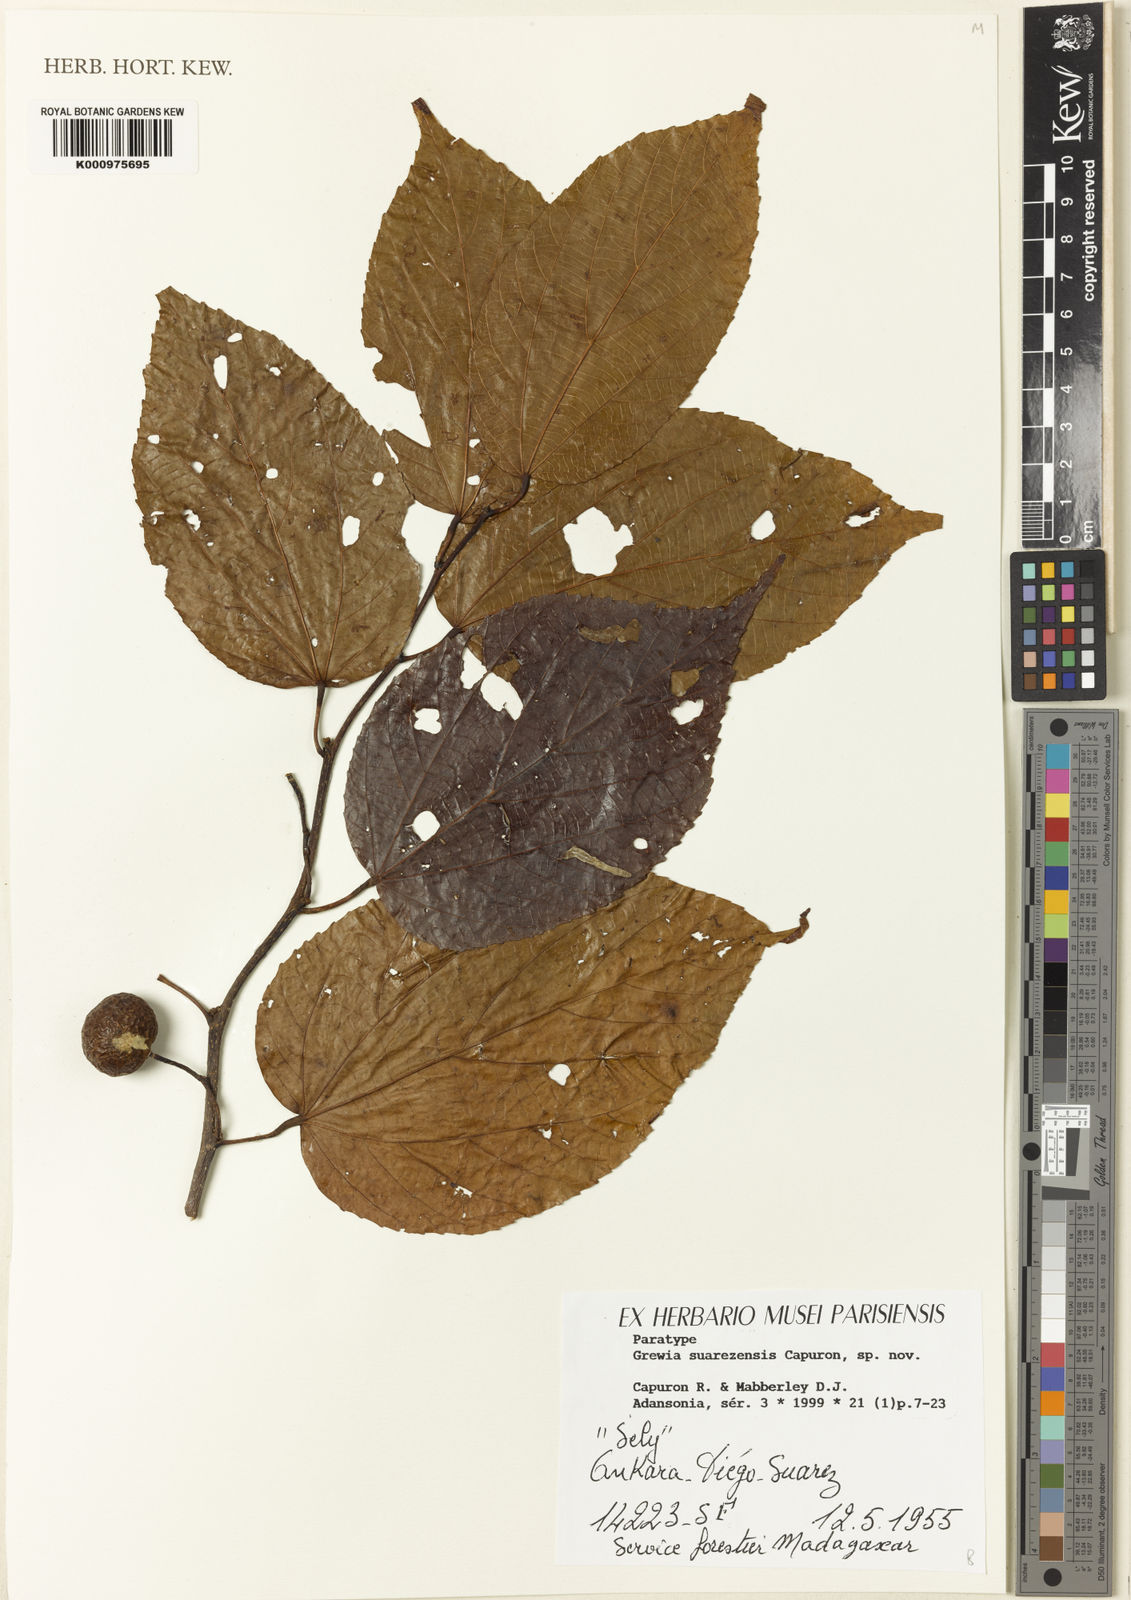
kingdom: Plantae
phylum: Tracheophyta
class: Magnoliopsida
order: Malvales
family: Malvaceae
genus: Grewia
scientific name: Grewia suarezensis
